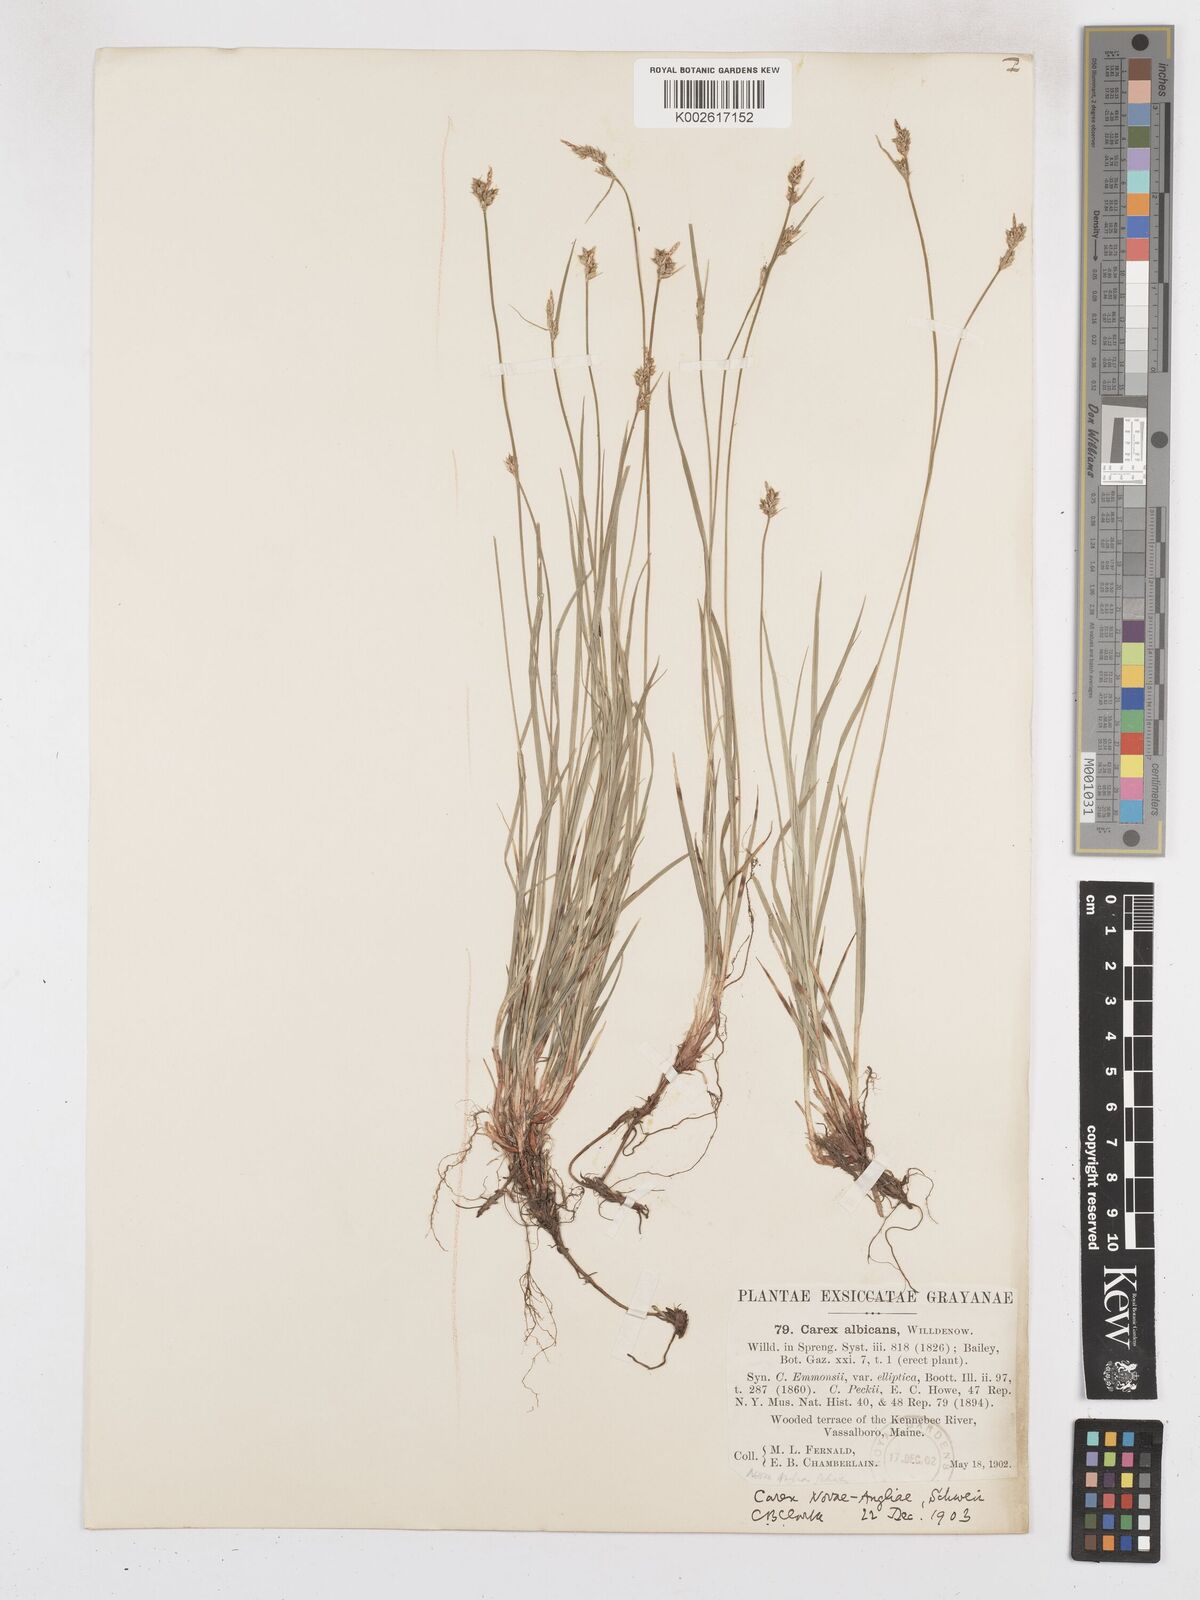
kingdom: Plantae
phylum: Tracheophyta
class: Liliopsida
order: Poales
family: Cyperaceae
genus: Carex
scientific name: Carex peckii
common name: Peck's oak sedge
